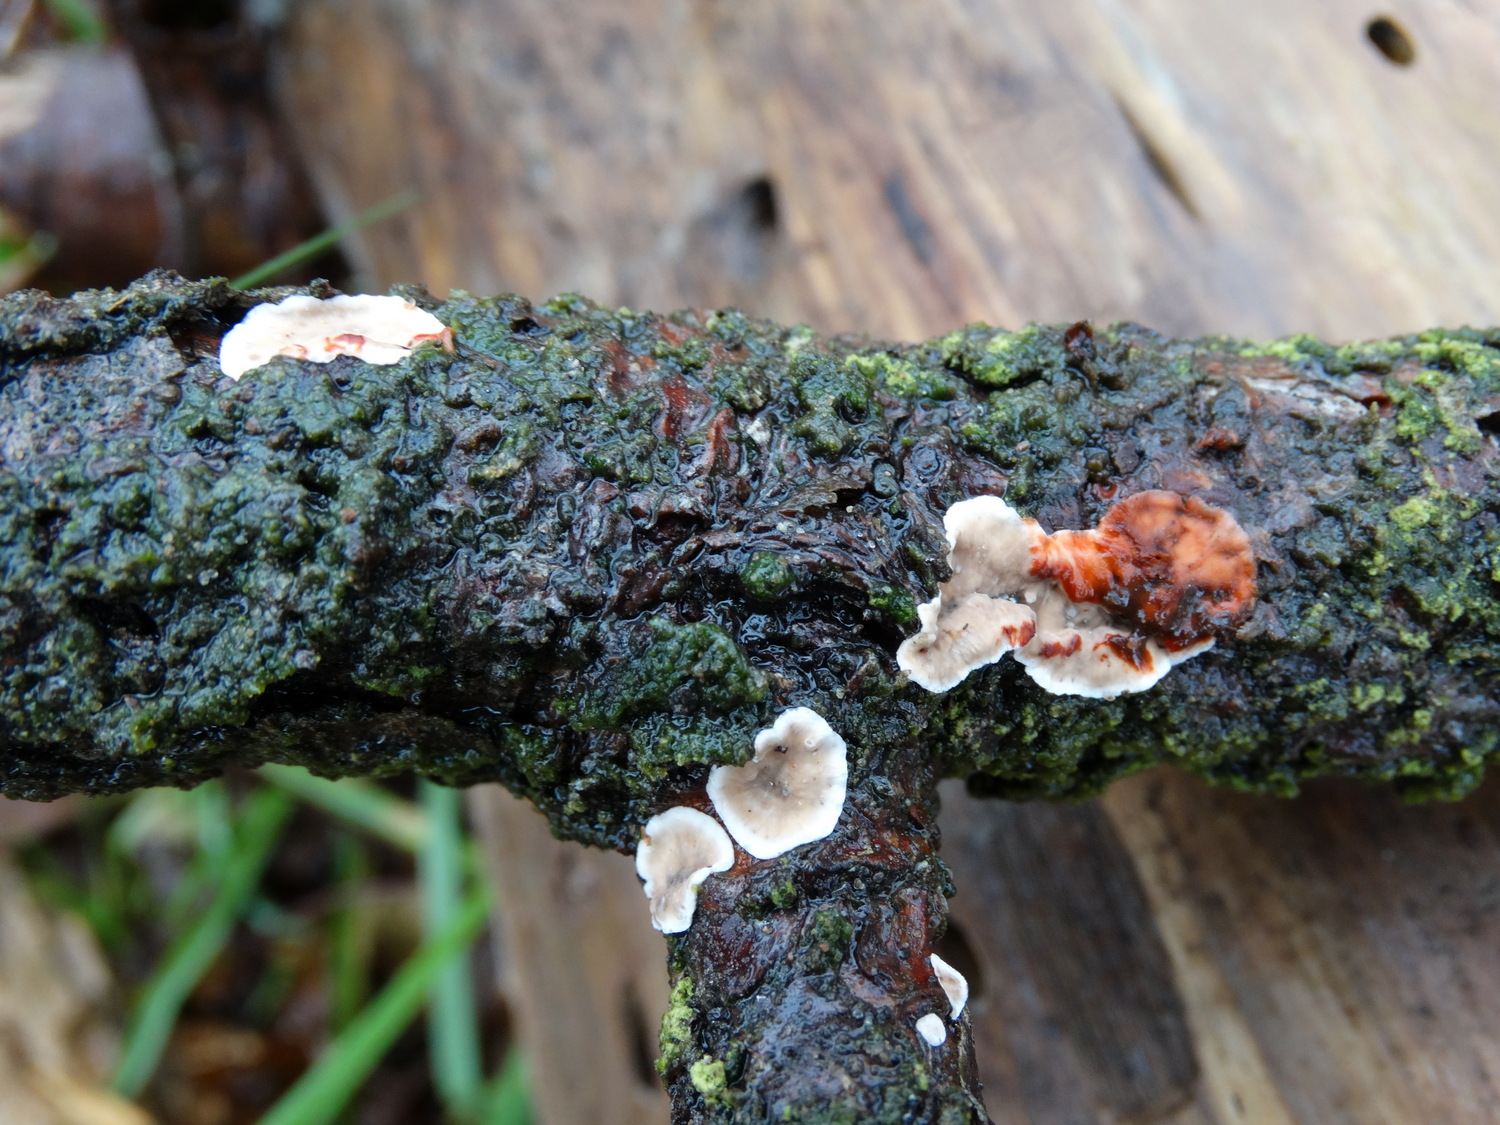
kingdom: Fungi
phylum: Basidiomycota
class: Agaricomycetes
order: Russulales
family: Stereaceae
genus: Stereum
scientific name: Stereum sanguinolentum
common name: blødende lædersvamp
